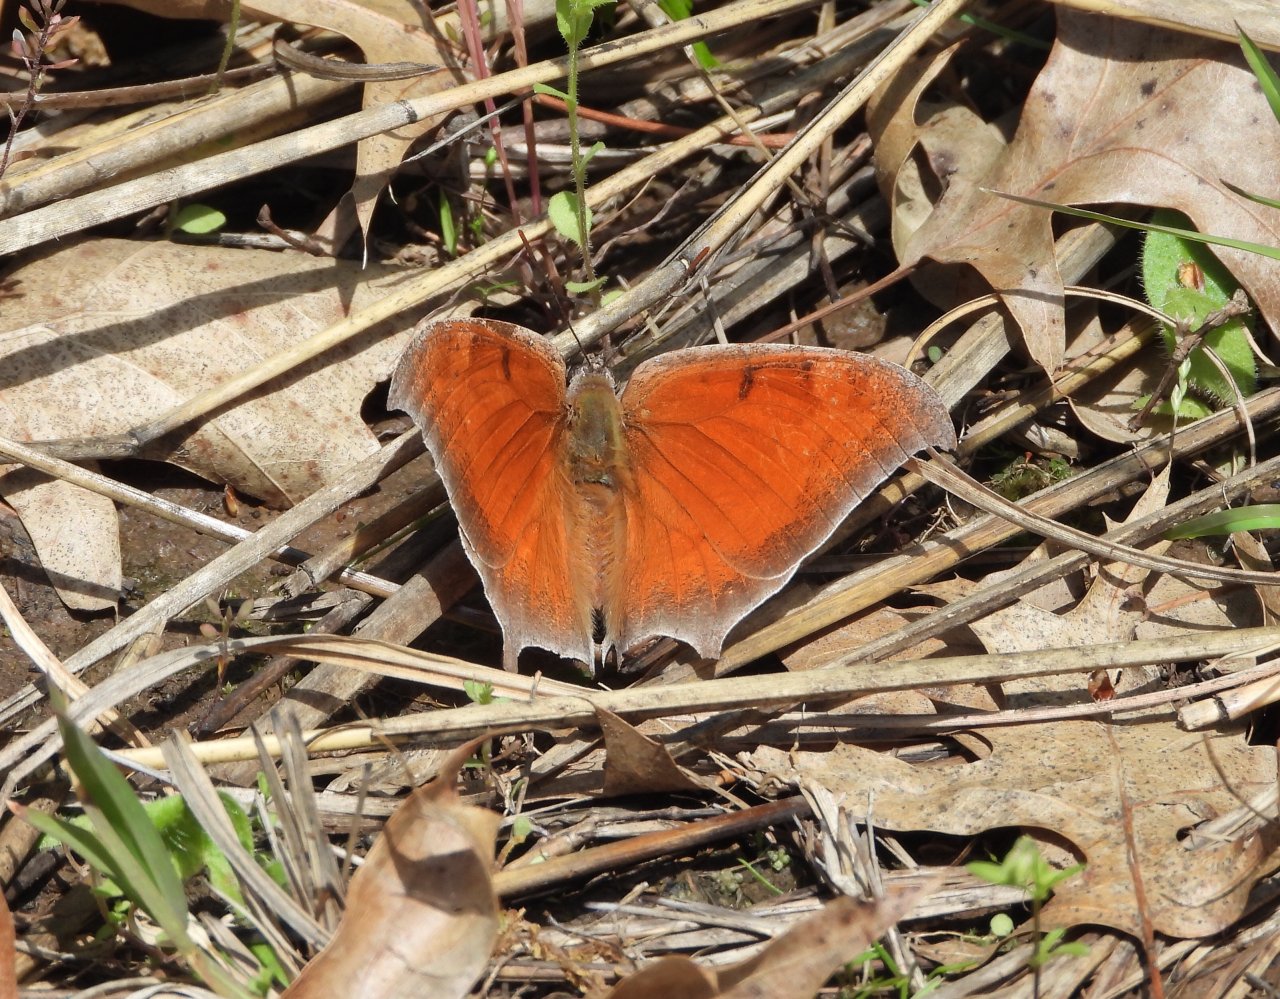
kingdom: Animalia
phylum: Arthropoda
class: Insecta
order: Lepidoptera
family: Nymphalidae
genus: Anaea
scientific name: Anaea andria
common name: Goatweed Leafwing
